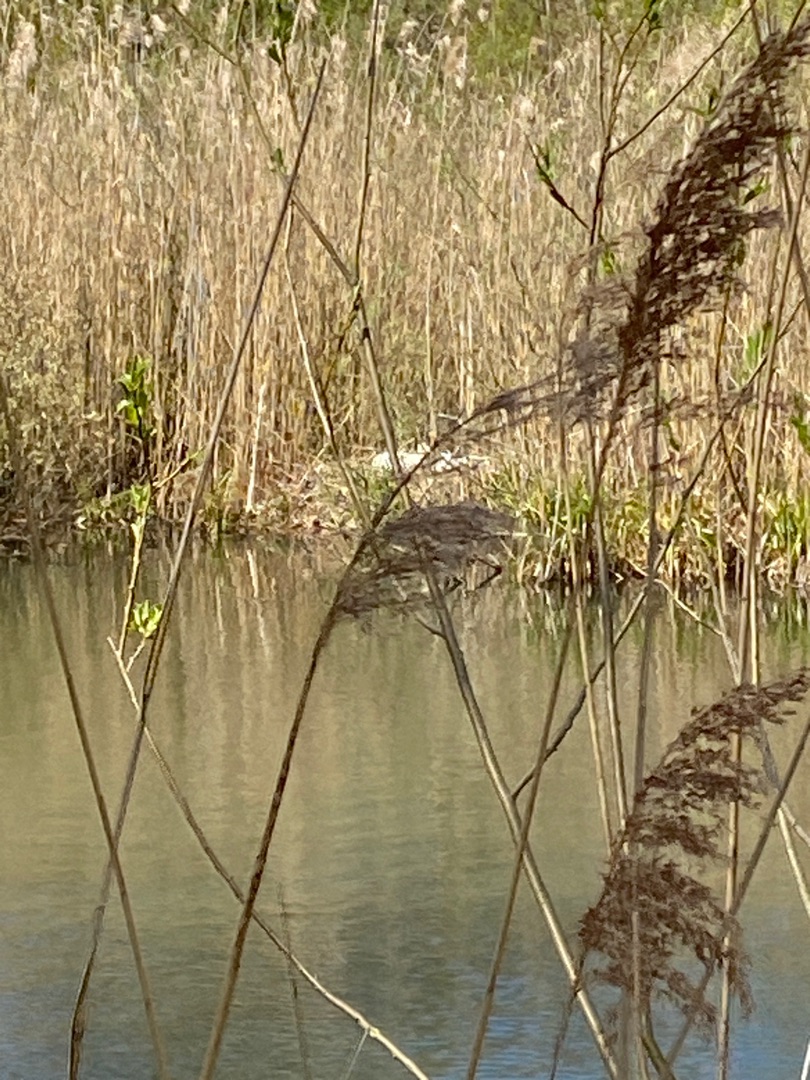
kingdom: Animalia
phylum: Chordata
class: Aves
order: Anseriformes
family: Anatidae
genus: Cygnus
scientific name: Cygnus olor
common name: Knopsvane
